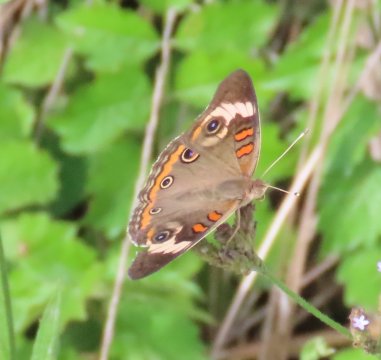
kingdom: Animalia
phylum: Arthropoda
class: Insecta
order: Lepidoptera
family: Nymphalidae
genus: Junonia
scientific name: Junonia coenia
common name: Common Buckeye
